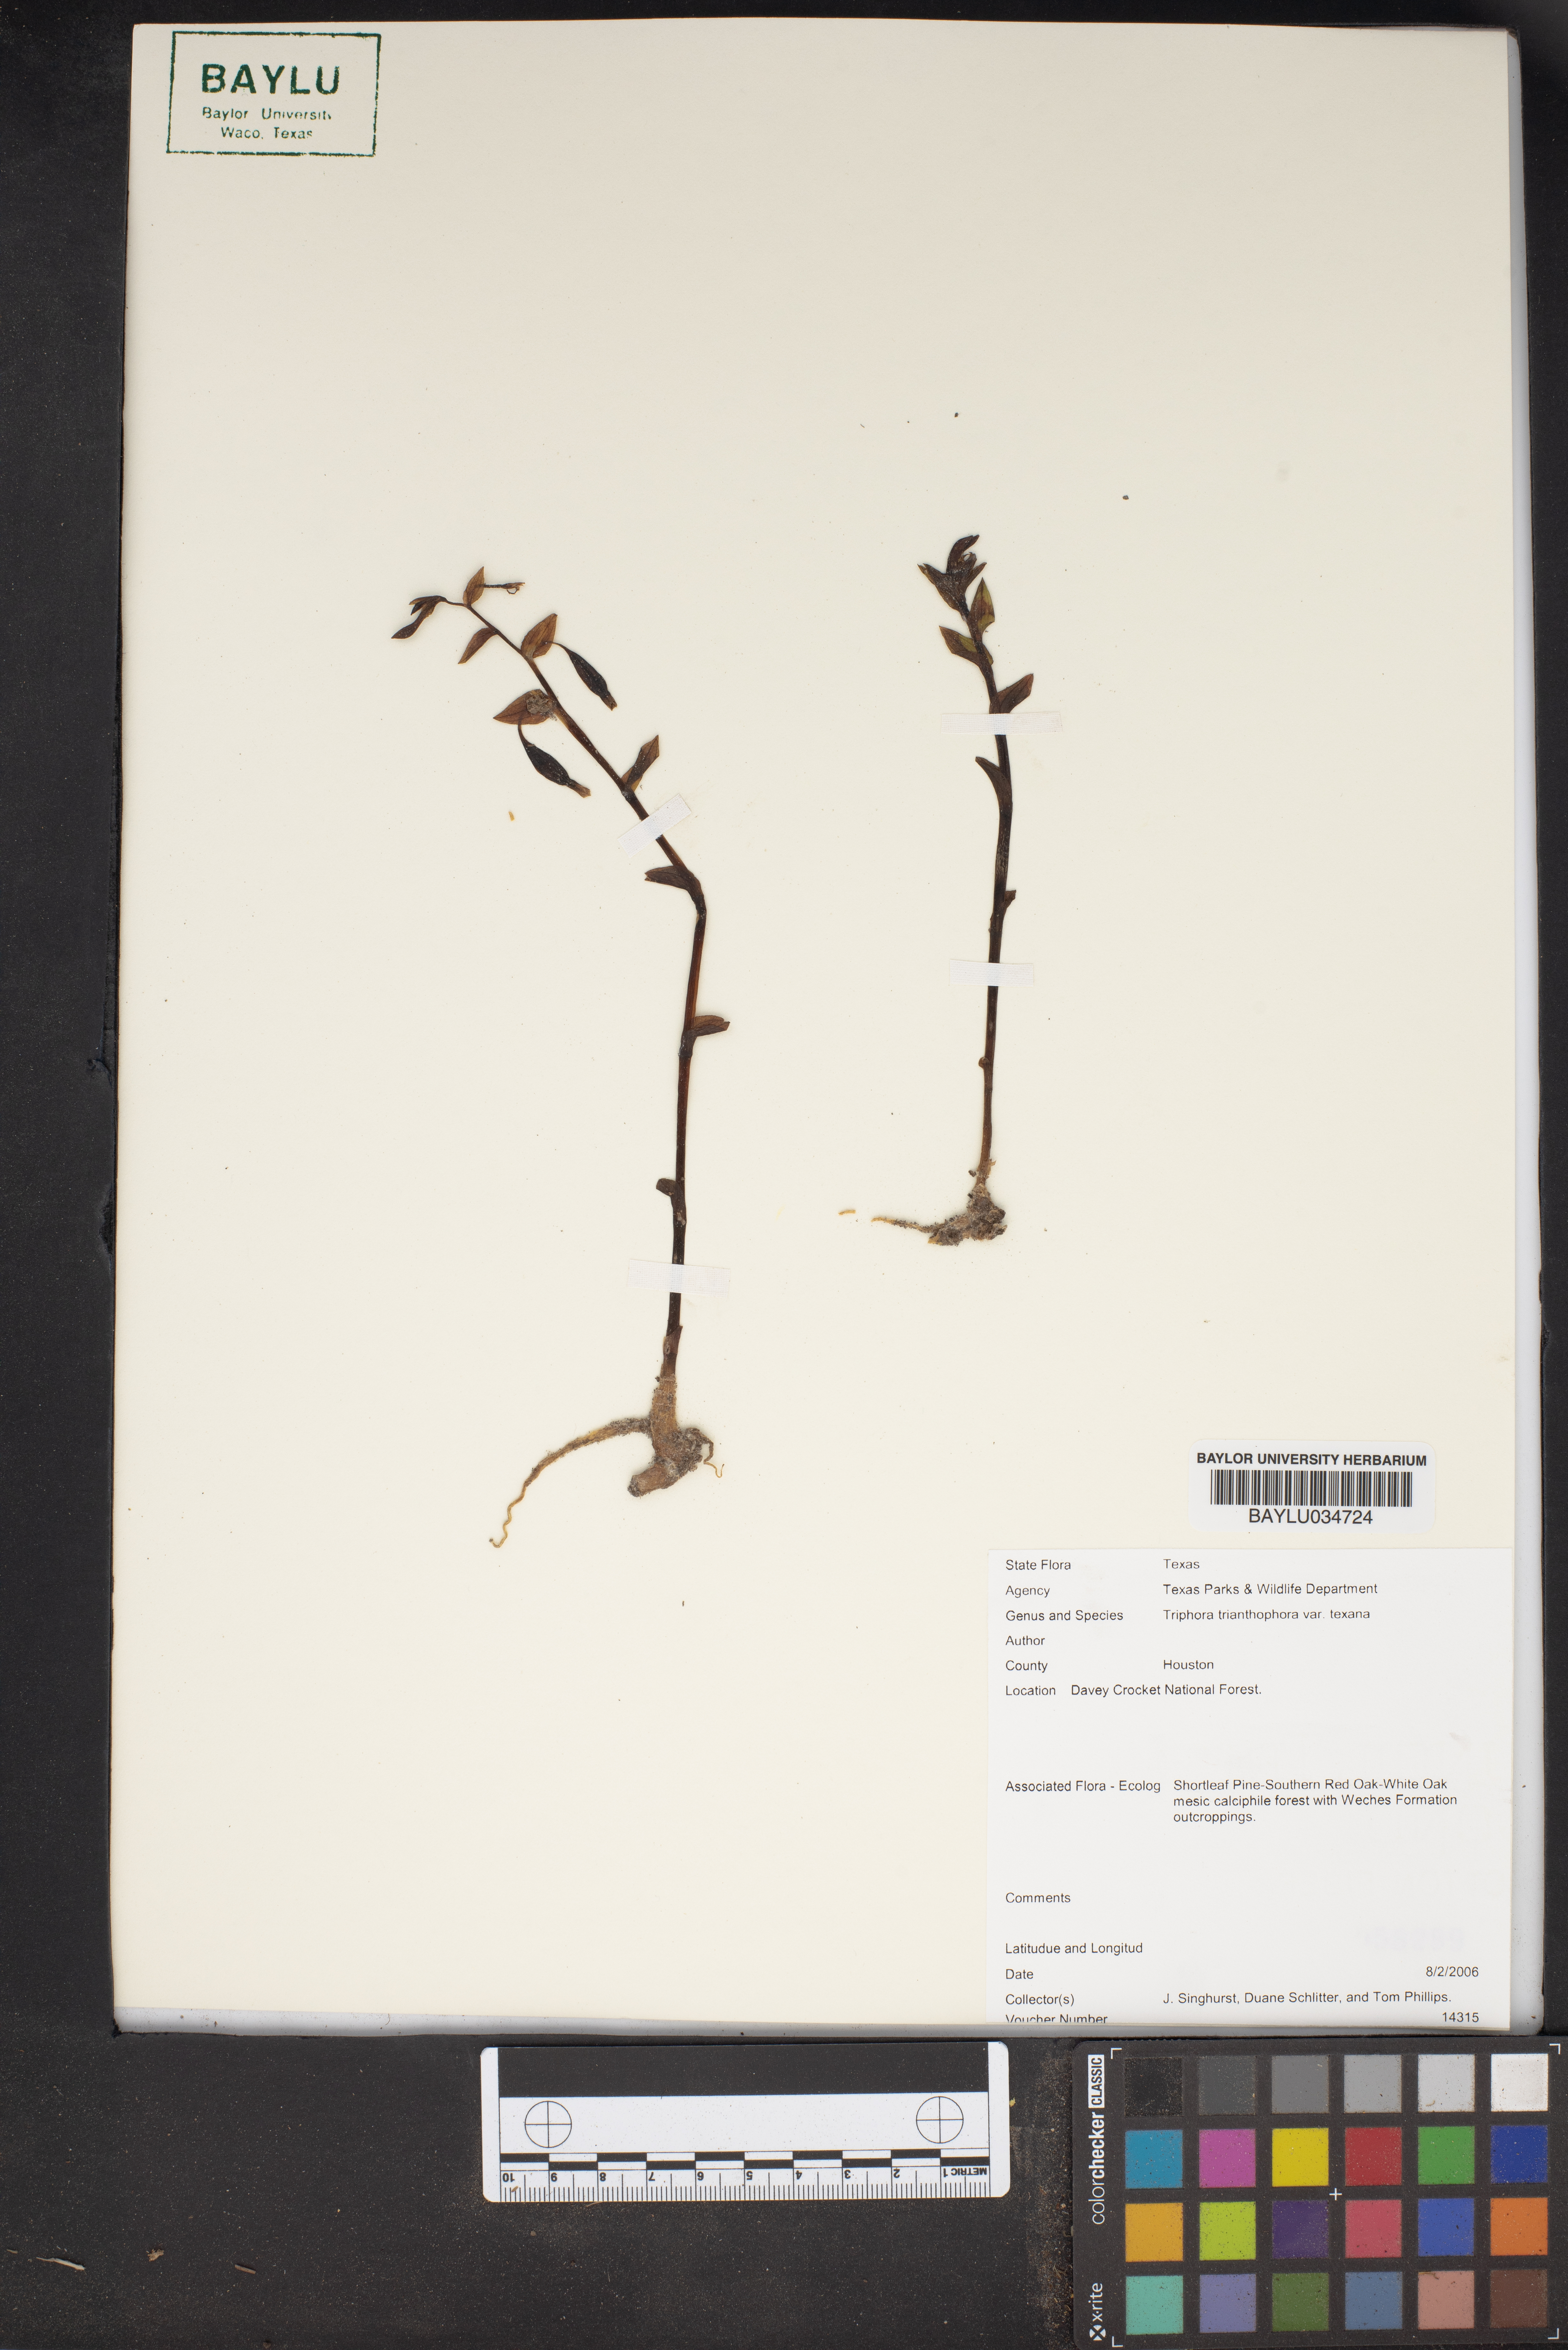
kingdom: Plantae
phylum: Tracheophyta
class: Liliopsida
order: Asparagales
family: Orchidaceae
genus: Triphora
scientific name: Triphora trianthophora
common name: Threebirds
